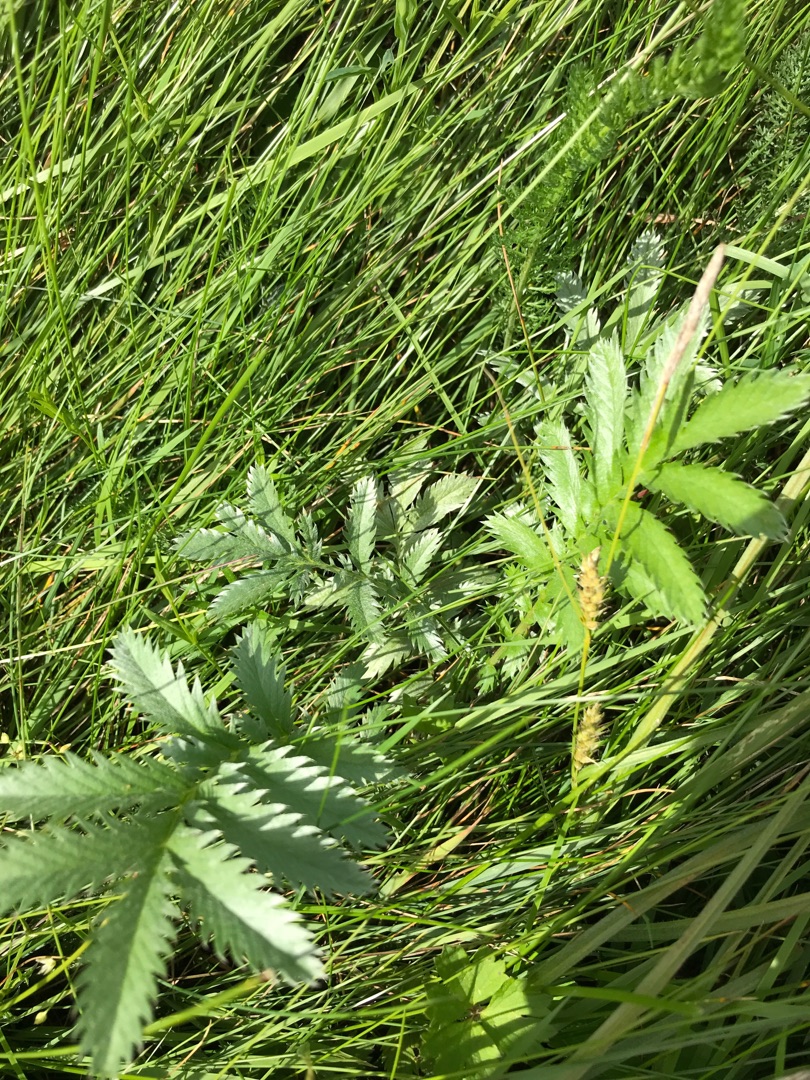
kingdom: Plantae
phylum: Tracheophyta
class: Magnoliopsida
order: Rosales
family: Rosaceae
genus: Argentina
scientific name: Argentina anserina
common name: Gåsepotentil
